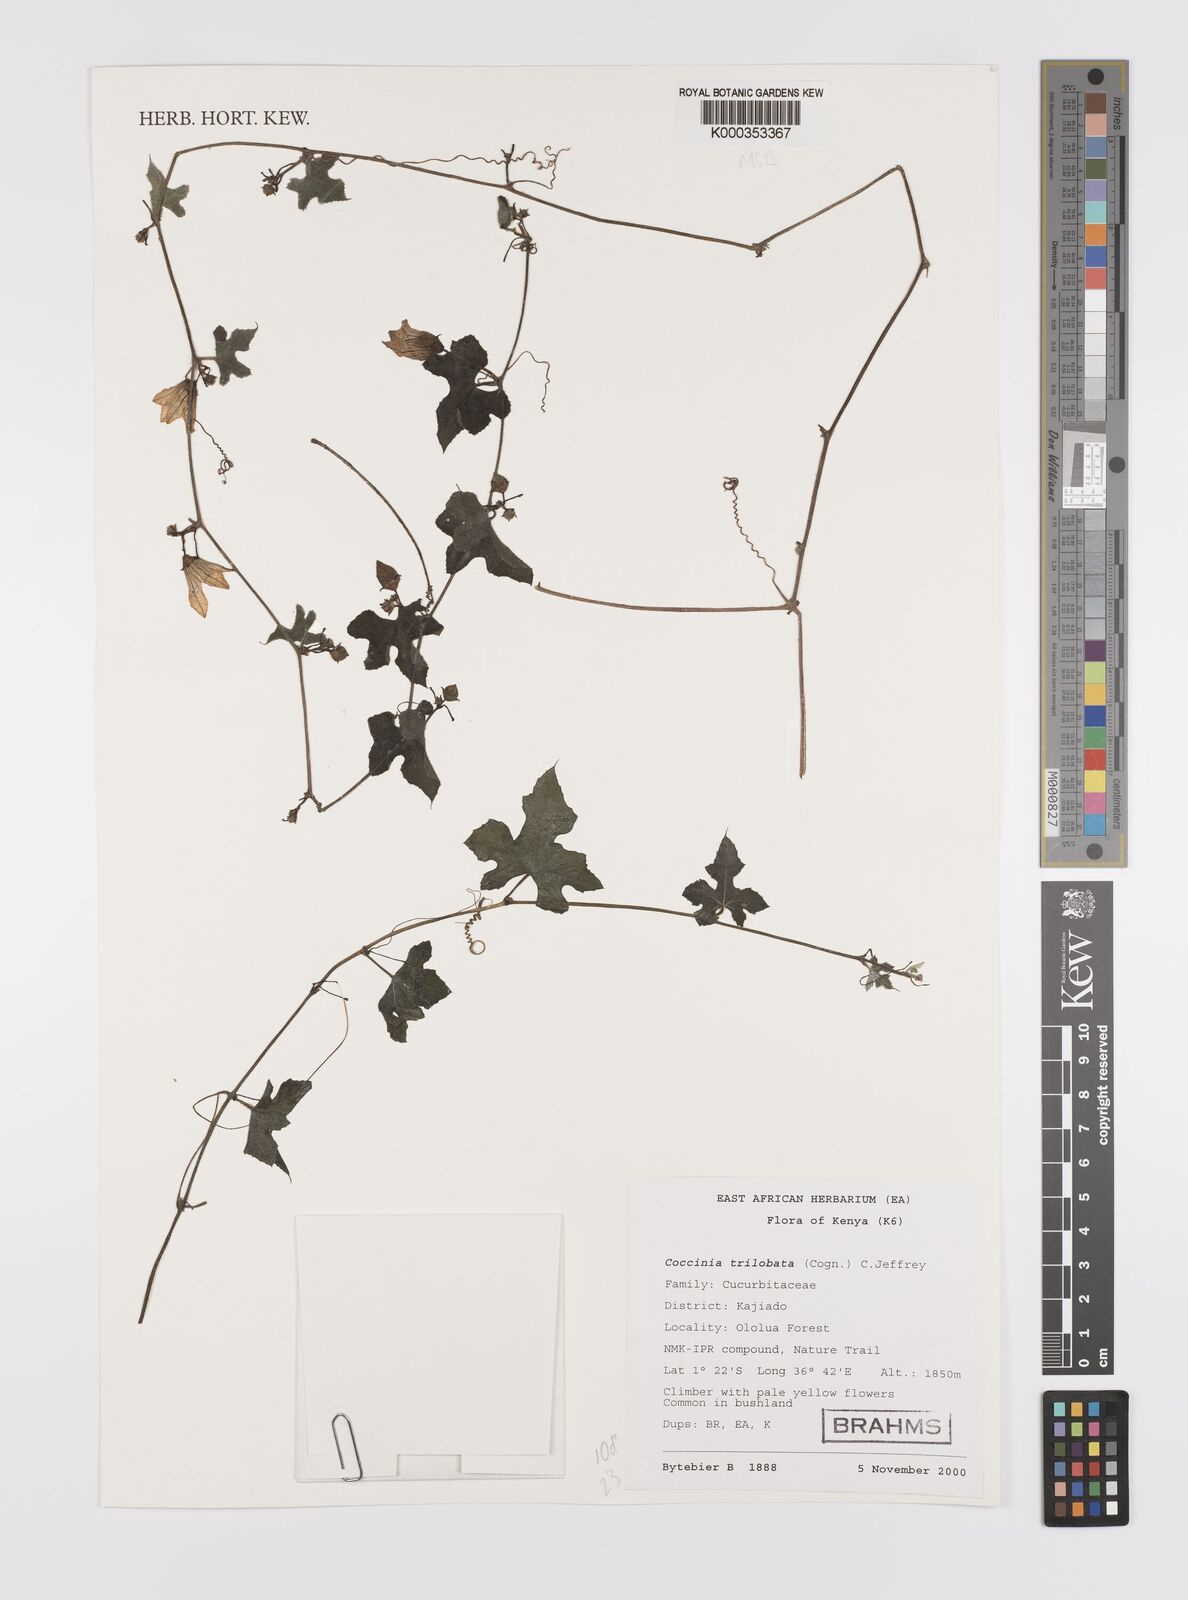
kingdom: Plantae
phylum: Tracheophyta
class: Magnoliopsida
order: Cucurbitales
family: Cucurbitaceae
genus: Coccinia
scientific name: Coccinia trilobata
